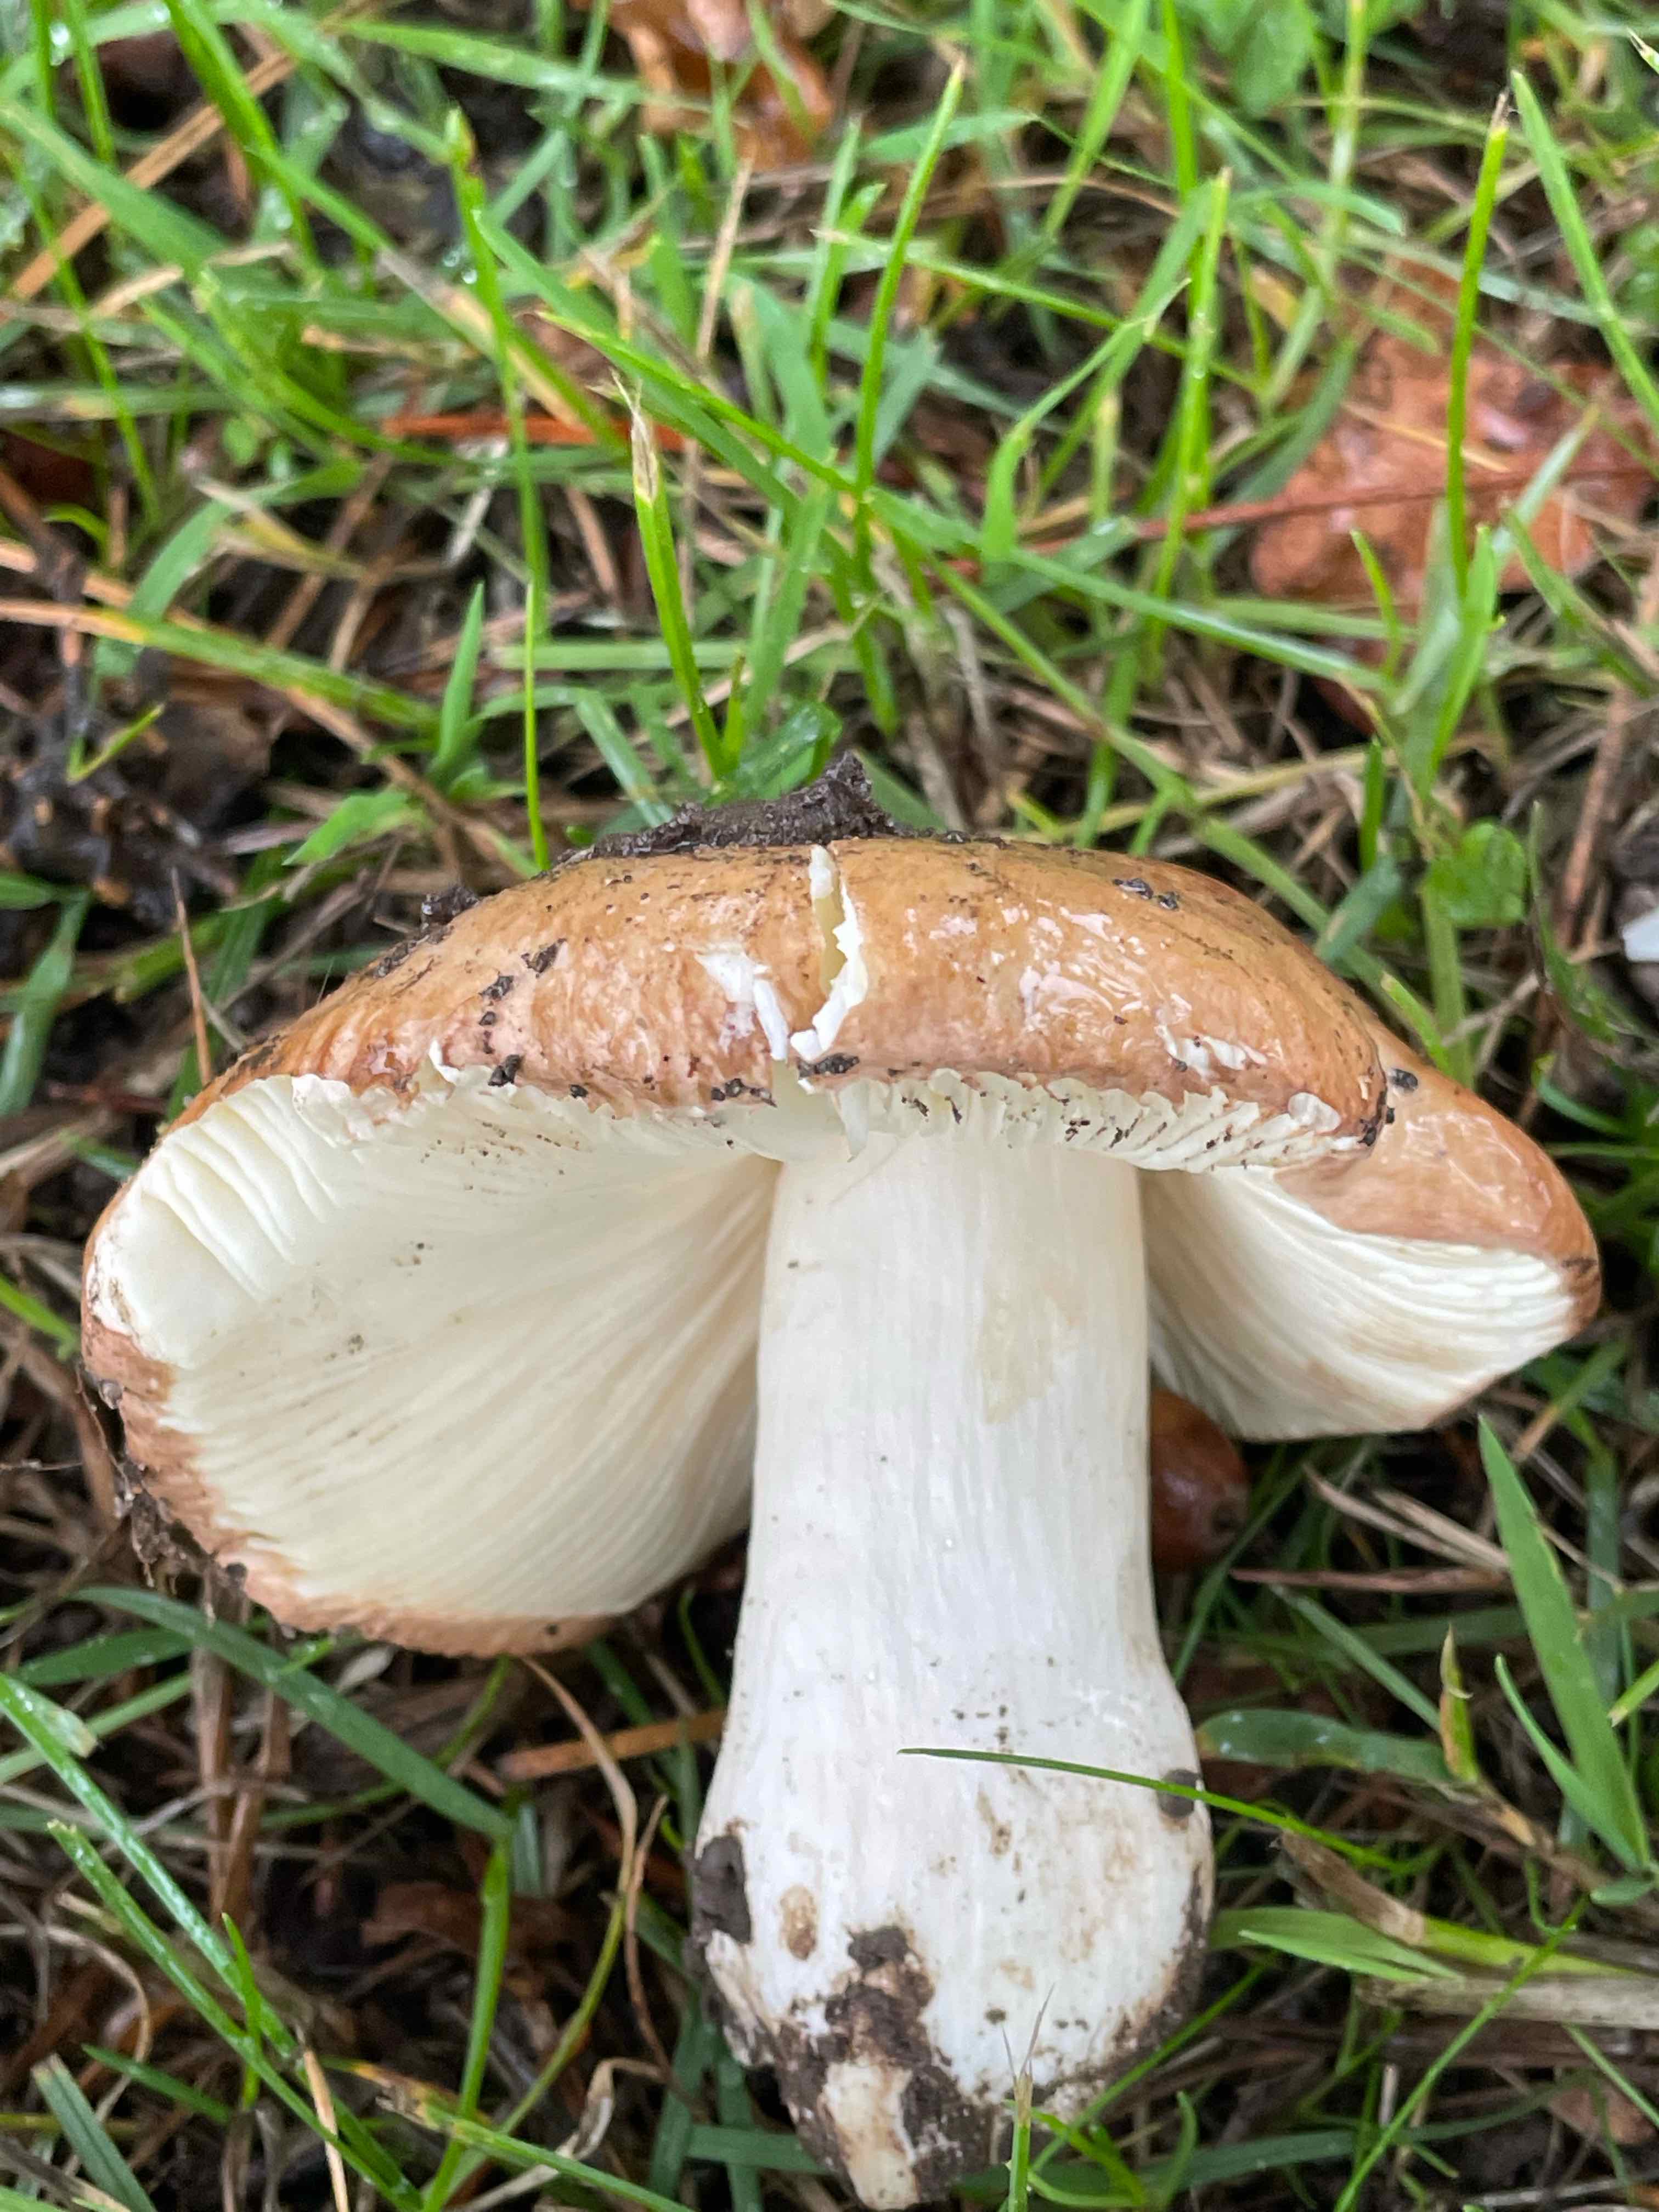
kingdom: Fungi
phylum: Basidiomycota
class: Agaricomycetes
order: Russulales
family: Russulaceae
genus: Russula
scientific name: Russula
